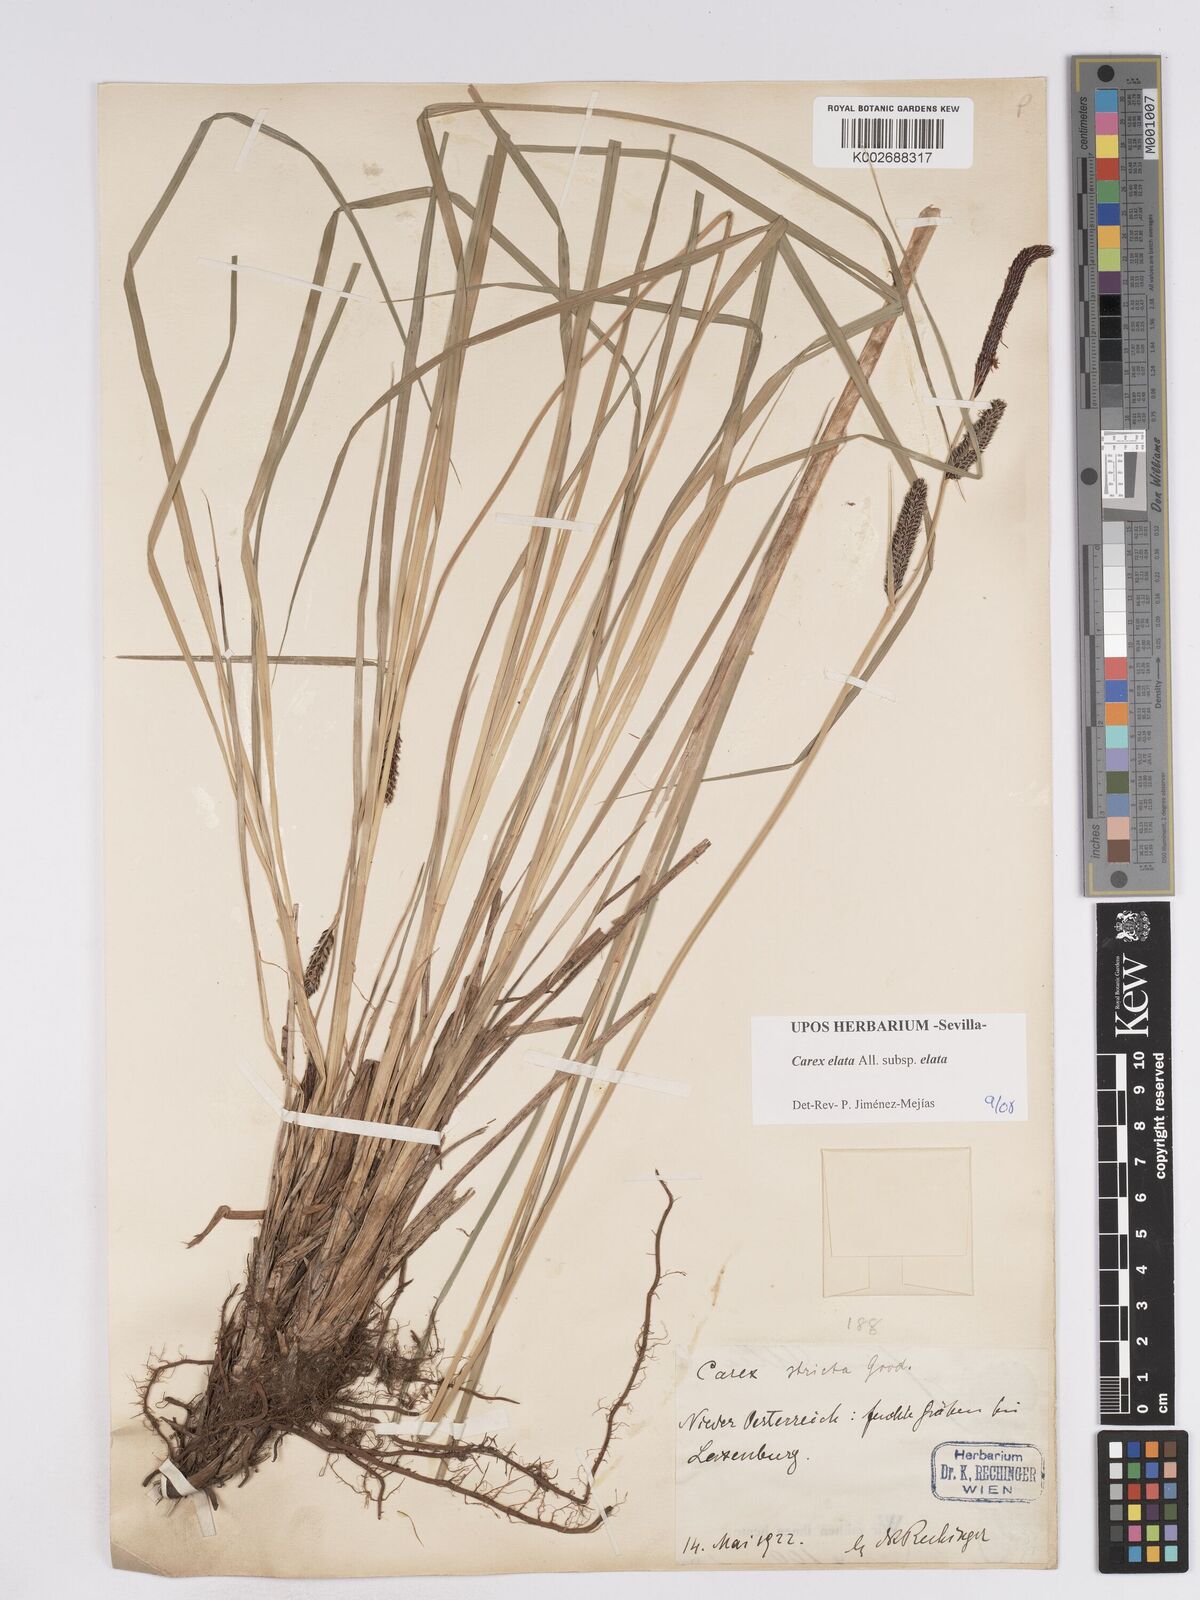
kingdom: Plantae
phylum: Tracheophyta
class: Liliopsida
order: Poales
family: Cyperaceae
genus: Carex
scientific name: Carex elata
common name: Tufted sedge
